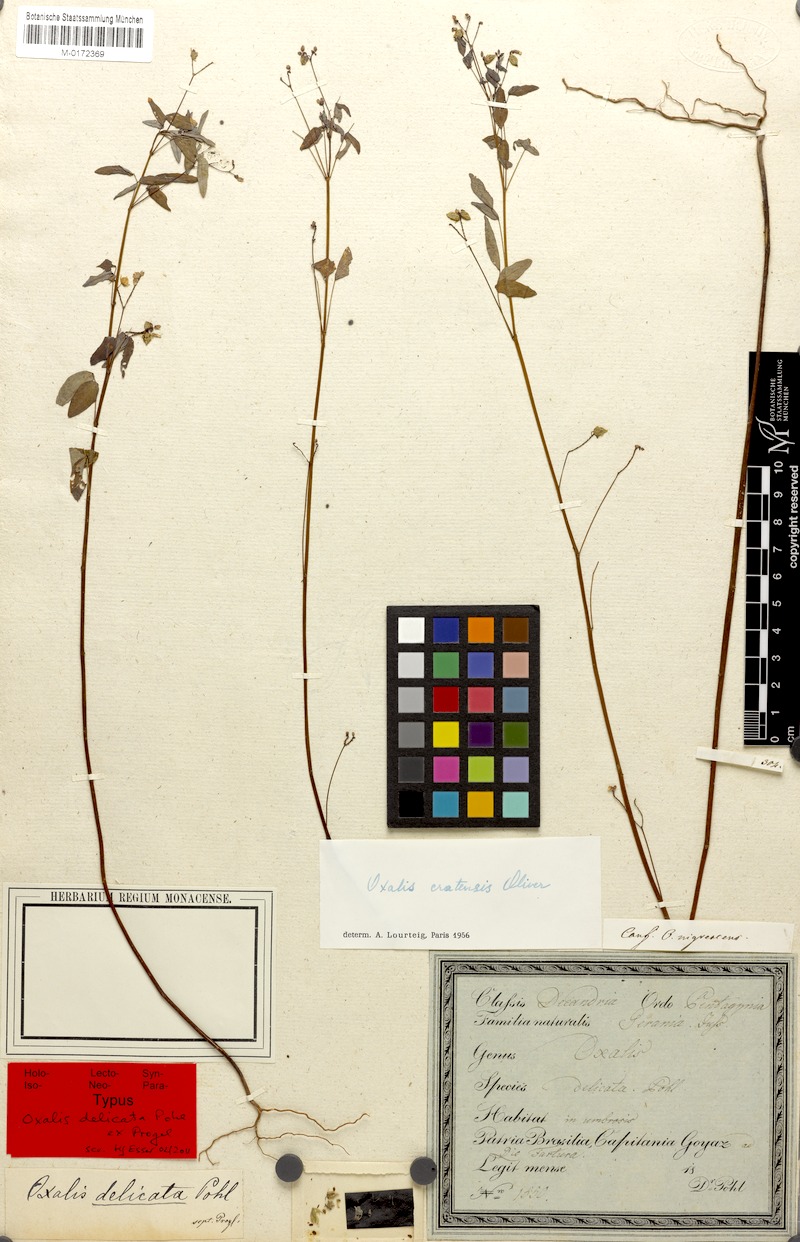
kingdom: Plantae
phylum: Tracheophyta
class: Magnoliopsida
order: Oxalidales
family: Oxalidaceae
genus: Oxalis
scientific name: Oxalis cratensis
